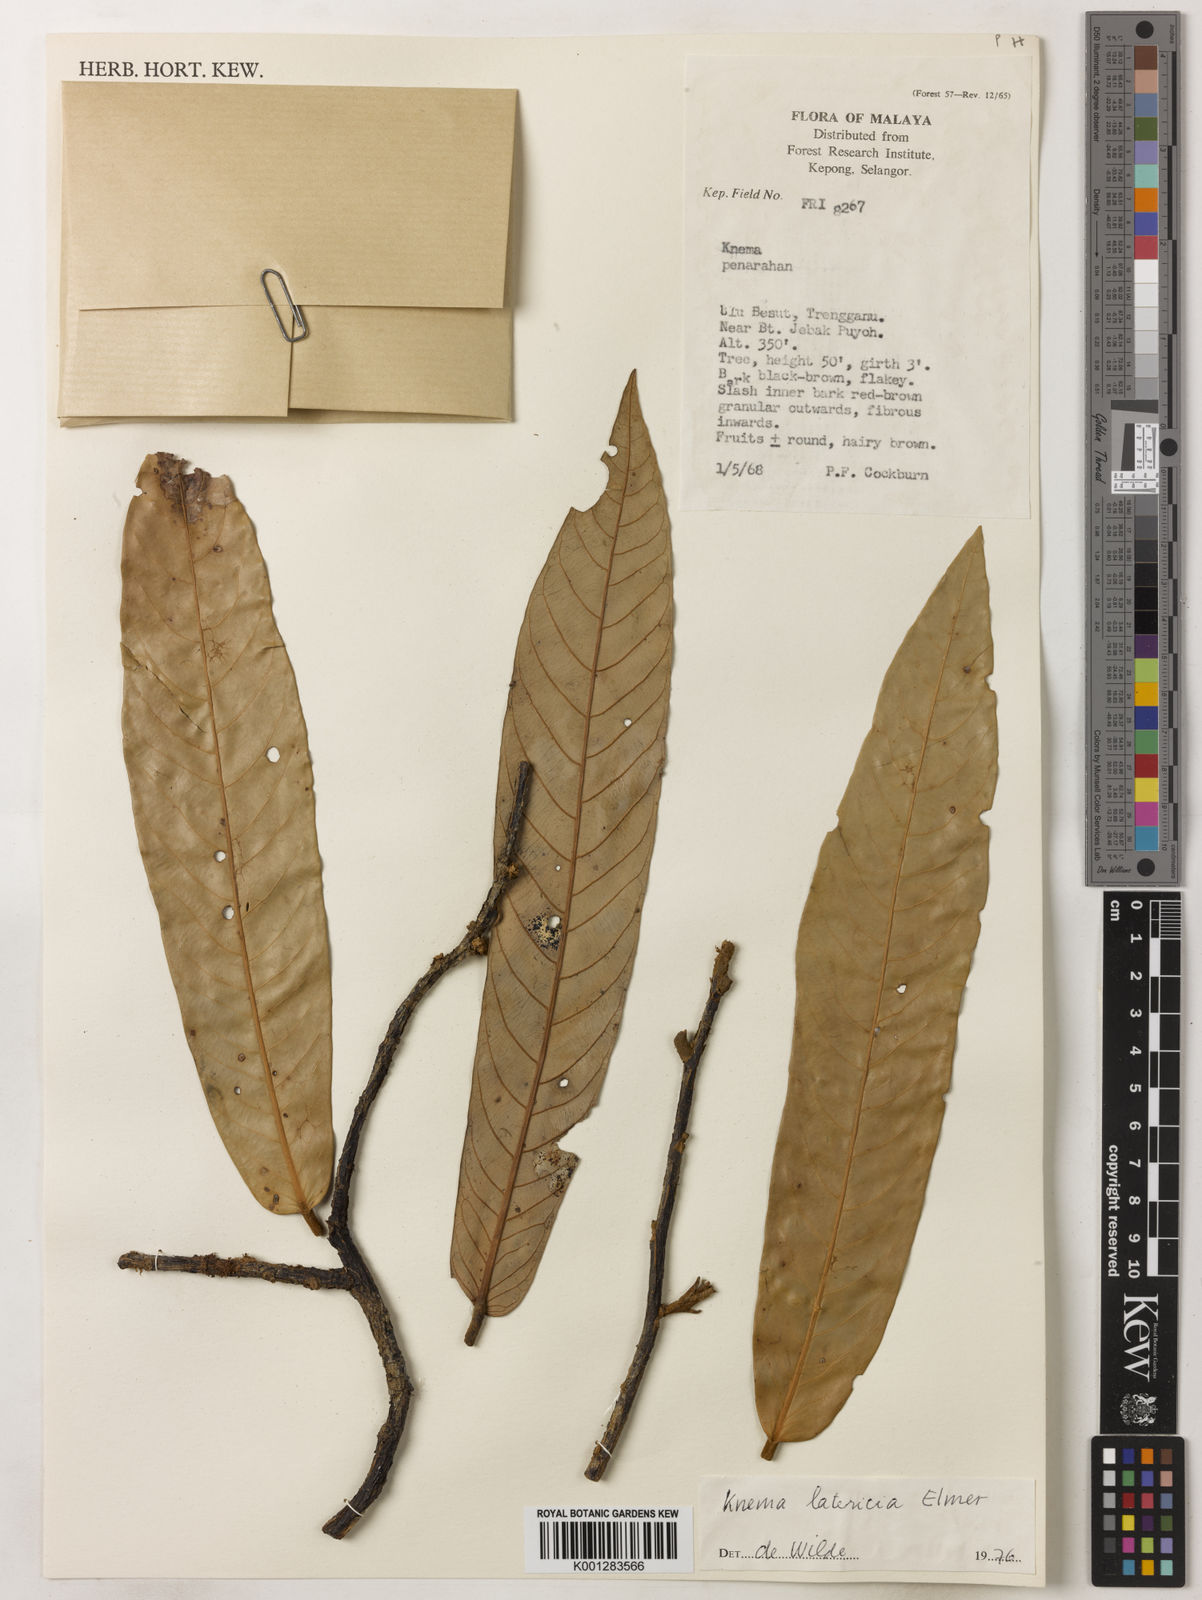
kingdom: Plantae
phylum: Tracheophyta
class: Magnoliopsida
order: Magnoliales
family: Myristicaceae
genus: Knema
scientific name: Knema latericia
